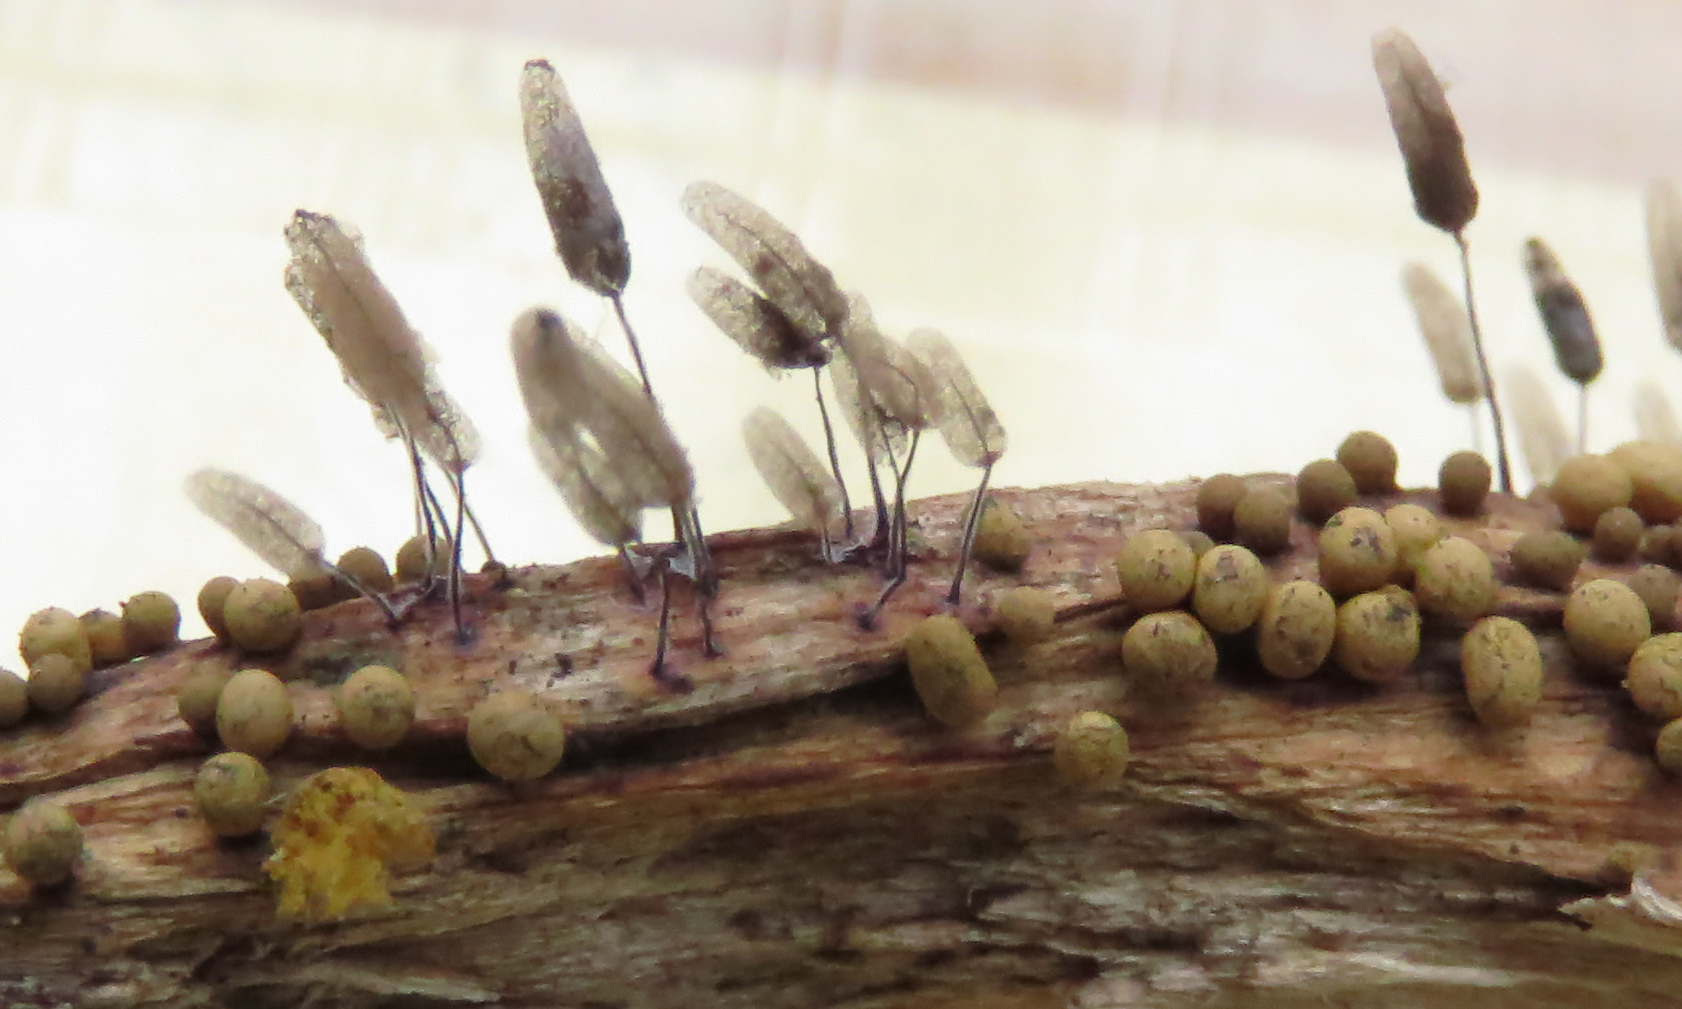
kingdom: Protozoa
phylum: Mycetozoa
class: Myxomycetes
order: Stemonitidales
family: Stemonitidaceae
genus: Stemonitopsis
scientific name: Stemonitopsis typhina
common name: skinnende støvkølle
